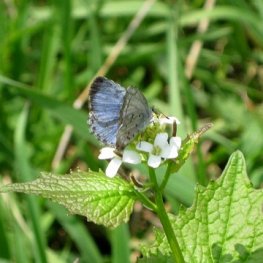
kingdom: Animalia
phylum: Arthropoda
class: Insecta
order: Lepidoptera
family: Lycaenidae
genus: Celastrina
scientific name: Celastrina ladon
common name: Spring Azure
